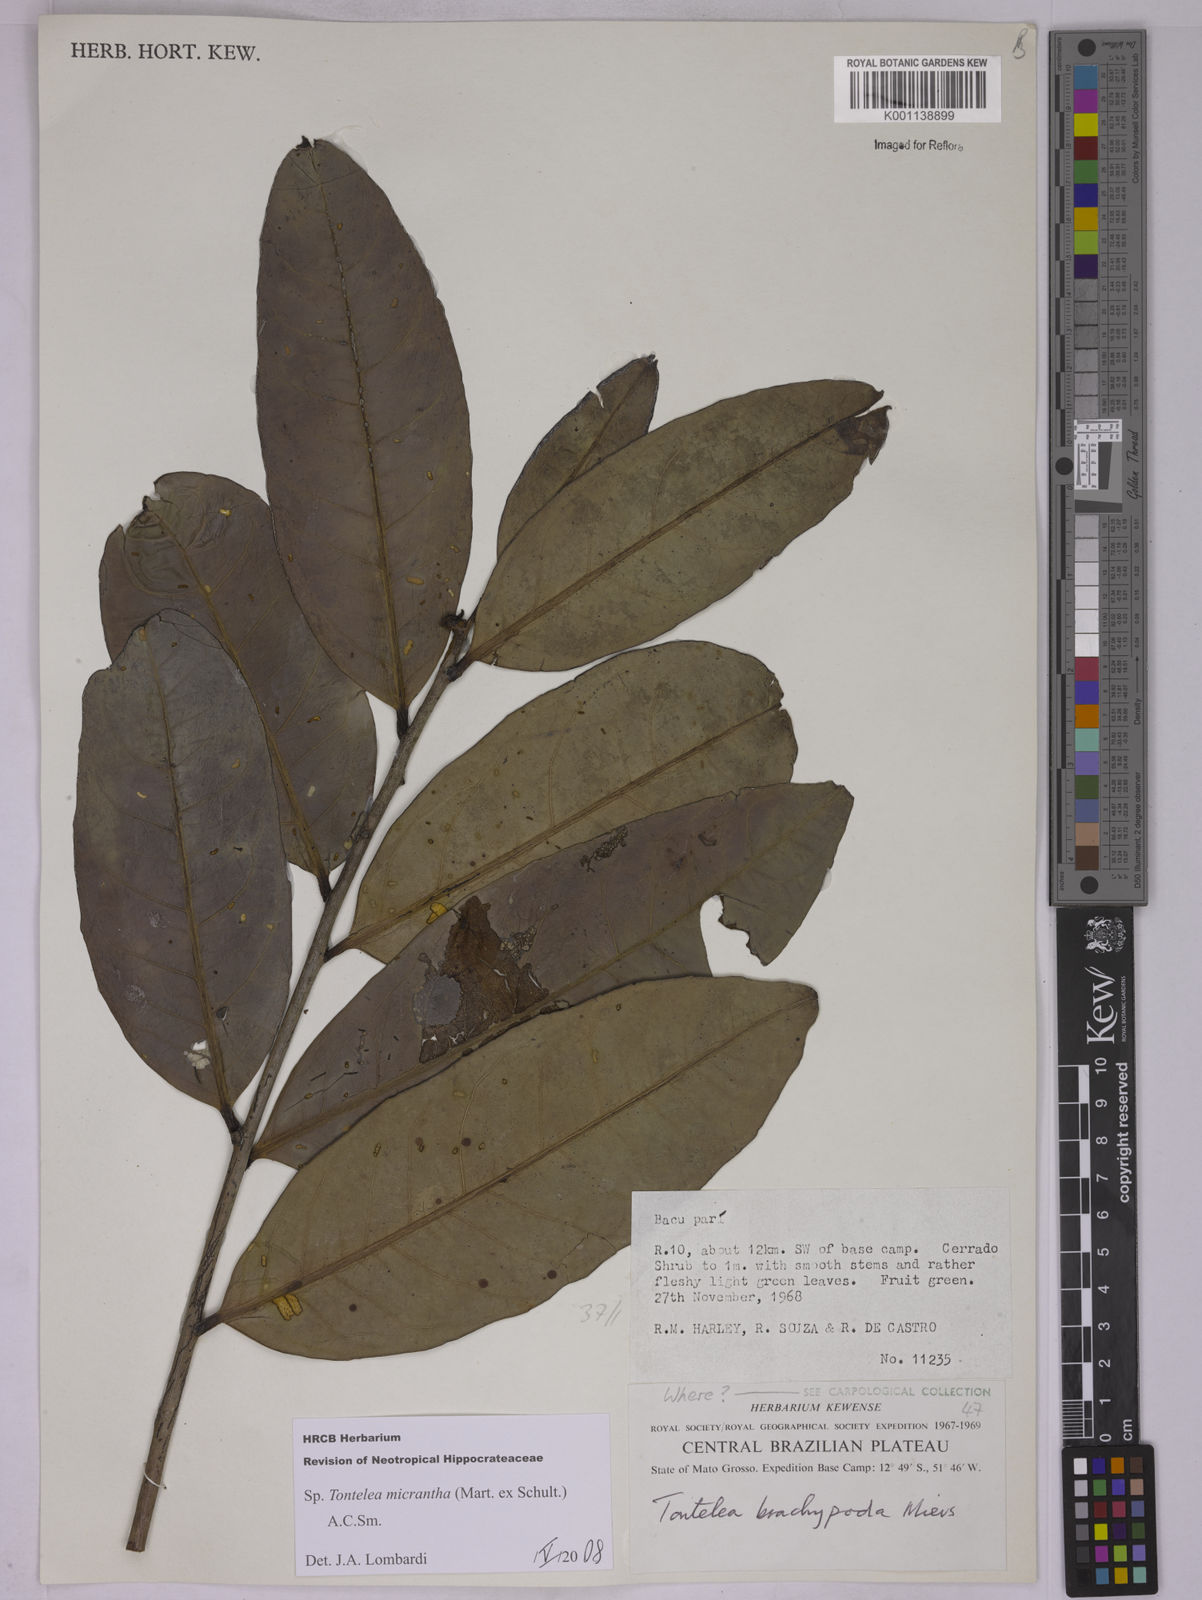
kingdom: Plantae
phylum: Tracheophyta
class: Magnoliopsida
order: Celastrales
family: Celastraceae
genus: Tontelea
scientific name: Tontelea micrantha
